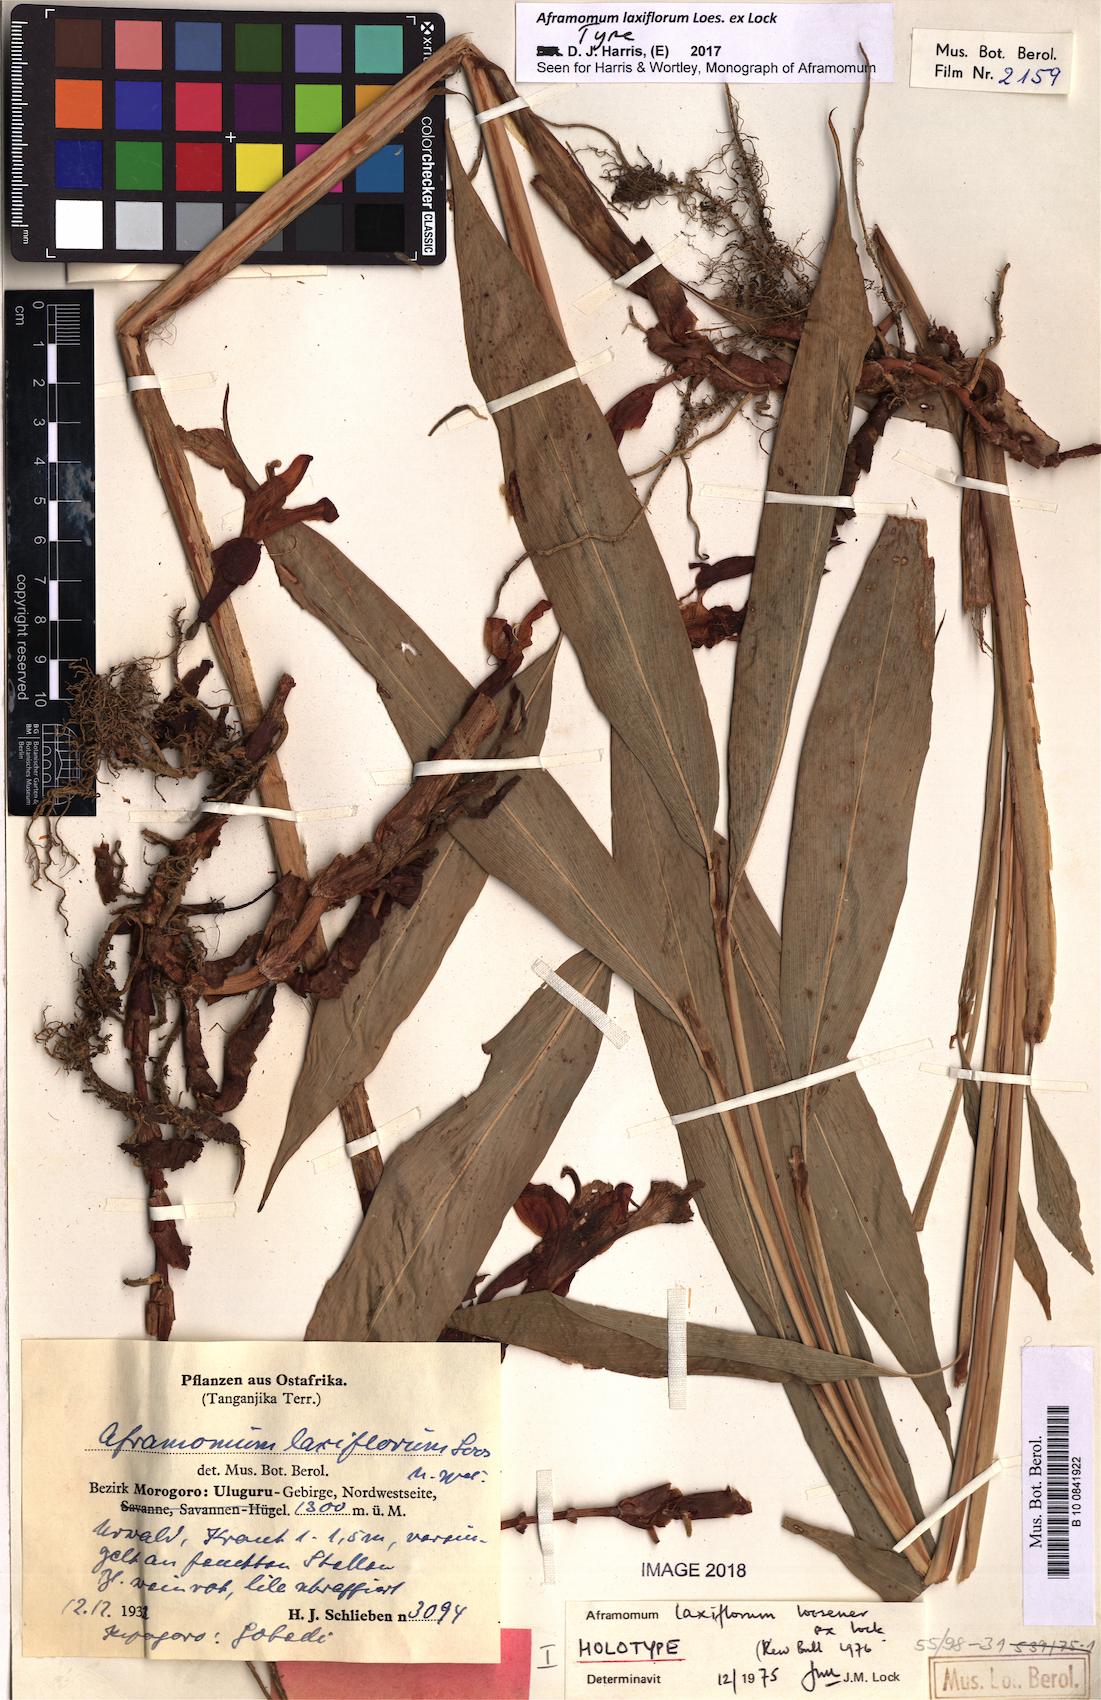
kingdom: Plantae
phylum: Tracheophyta
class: Liliopsida
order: Zingiberales
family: Zingiberaceae
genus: Aframomum
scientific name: Aframomum laxiflorum
